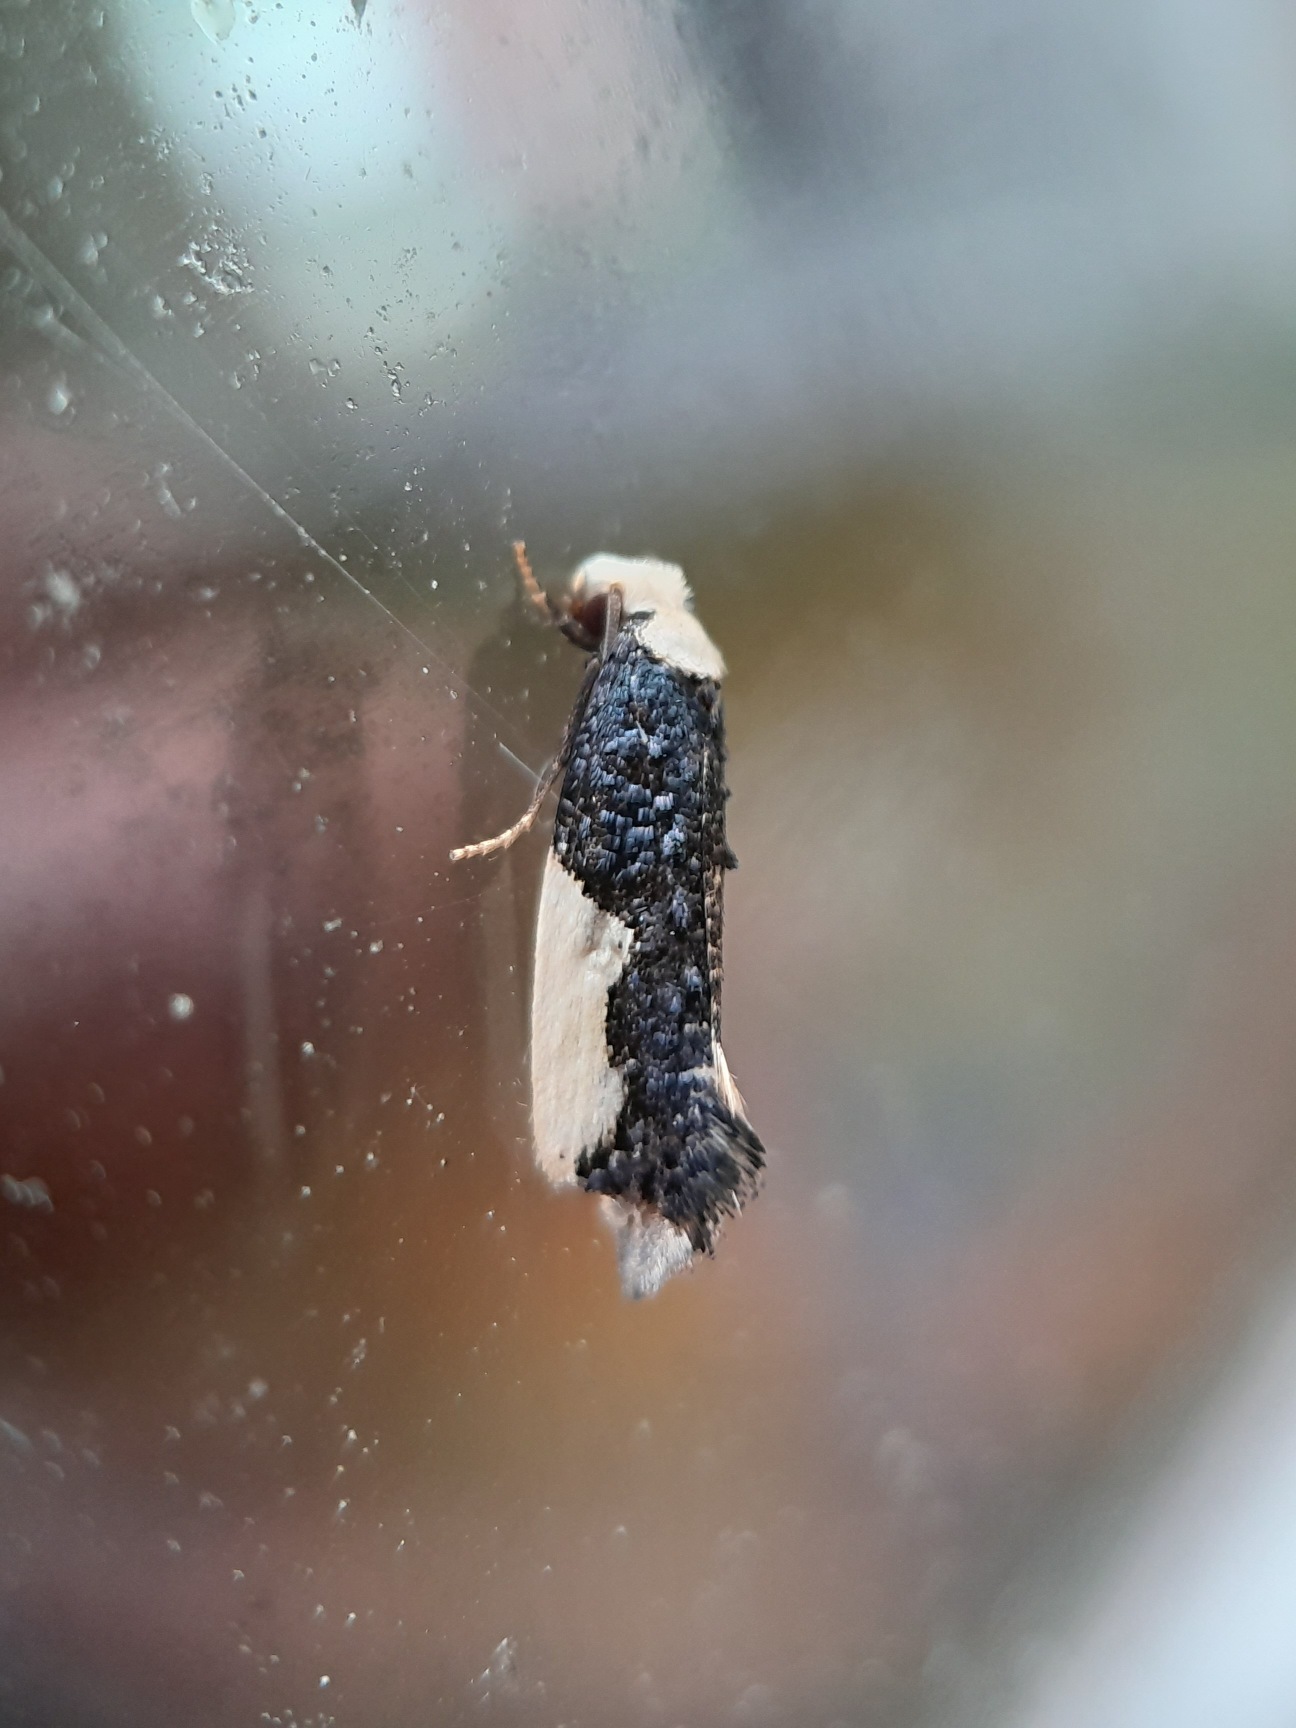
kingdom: Animalia
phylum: Arthropoda
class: Insecta
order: Lepidoptera
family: Tineidae
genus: Monopis
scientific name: Monopis monachella
